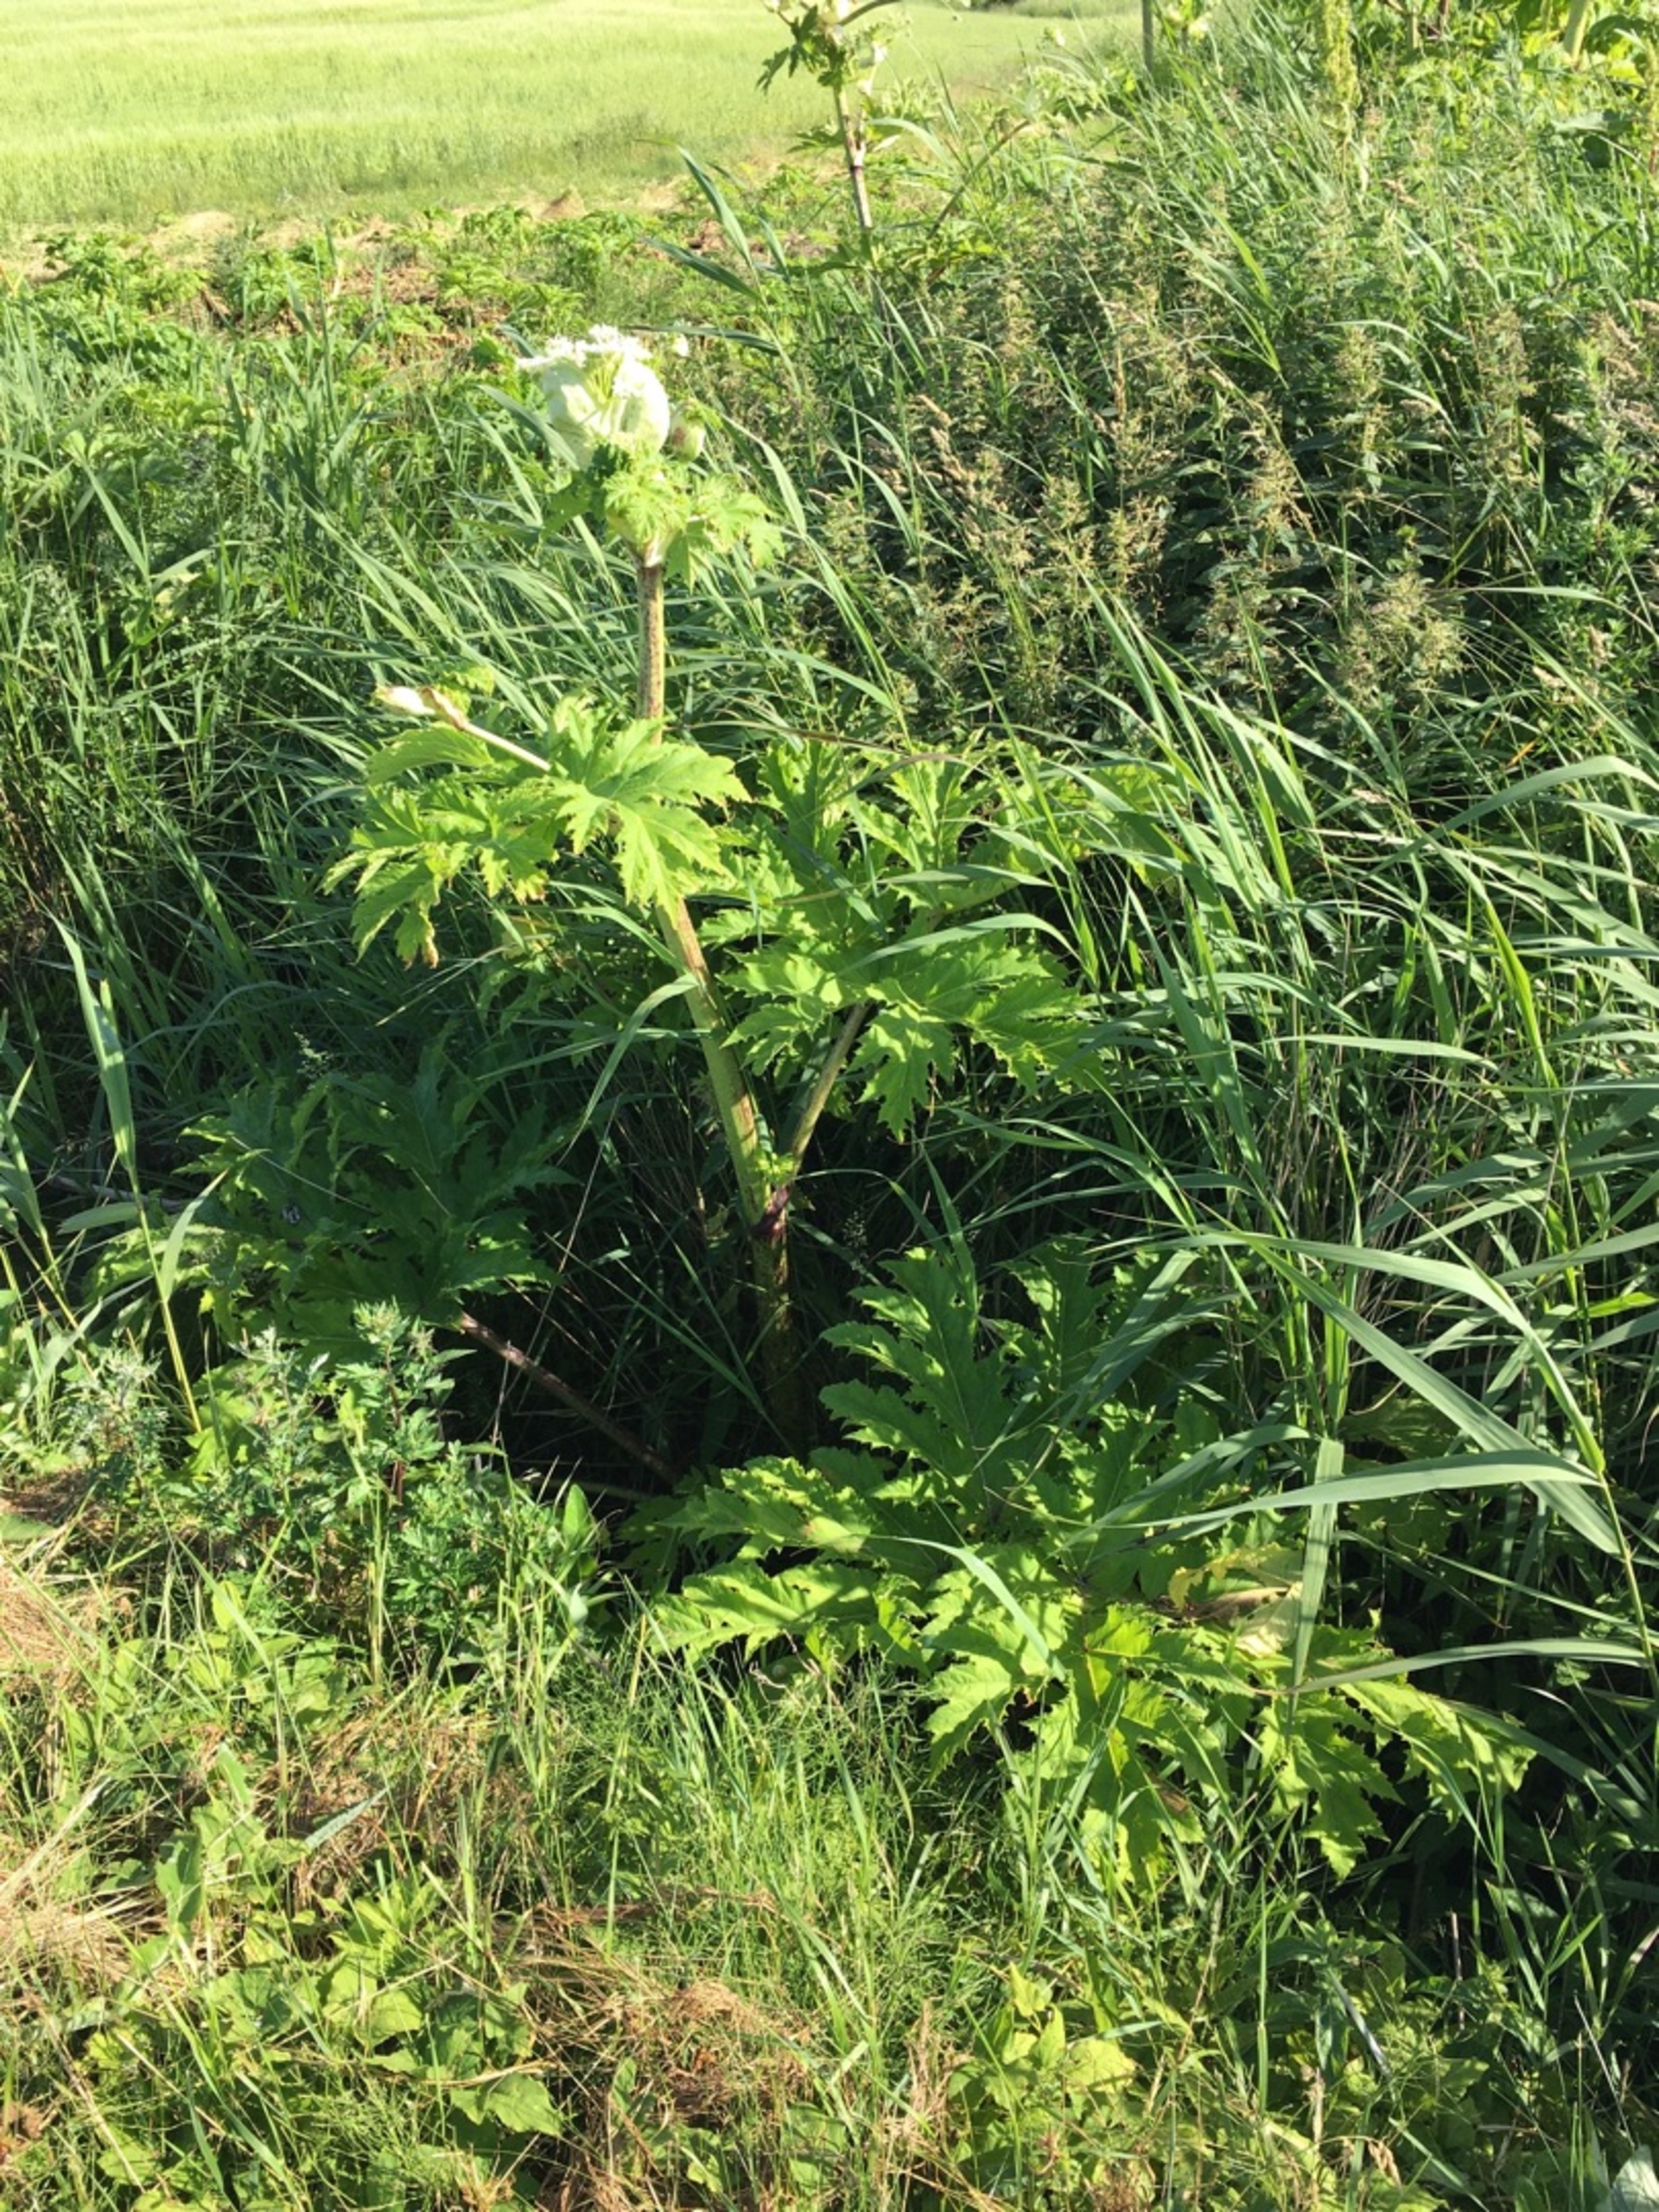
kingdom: Plantae
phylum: Tracheophyta
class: Magnoliopsida
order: Apiales
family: Apiaceae
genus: Heracleum
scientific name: Heracleum mantegazzianum
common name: Kæmpe-bjørneklo
